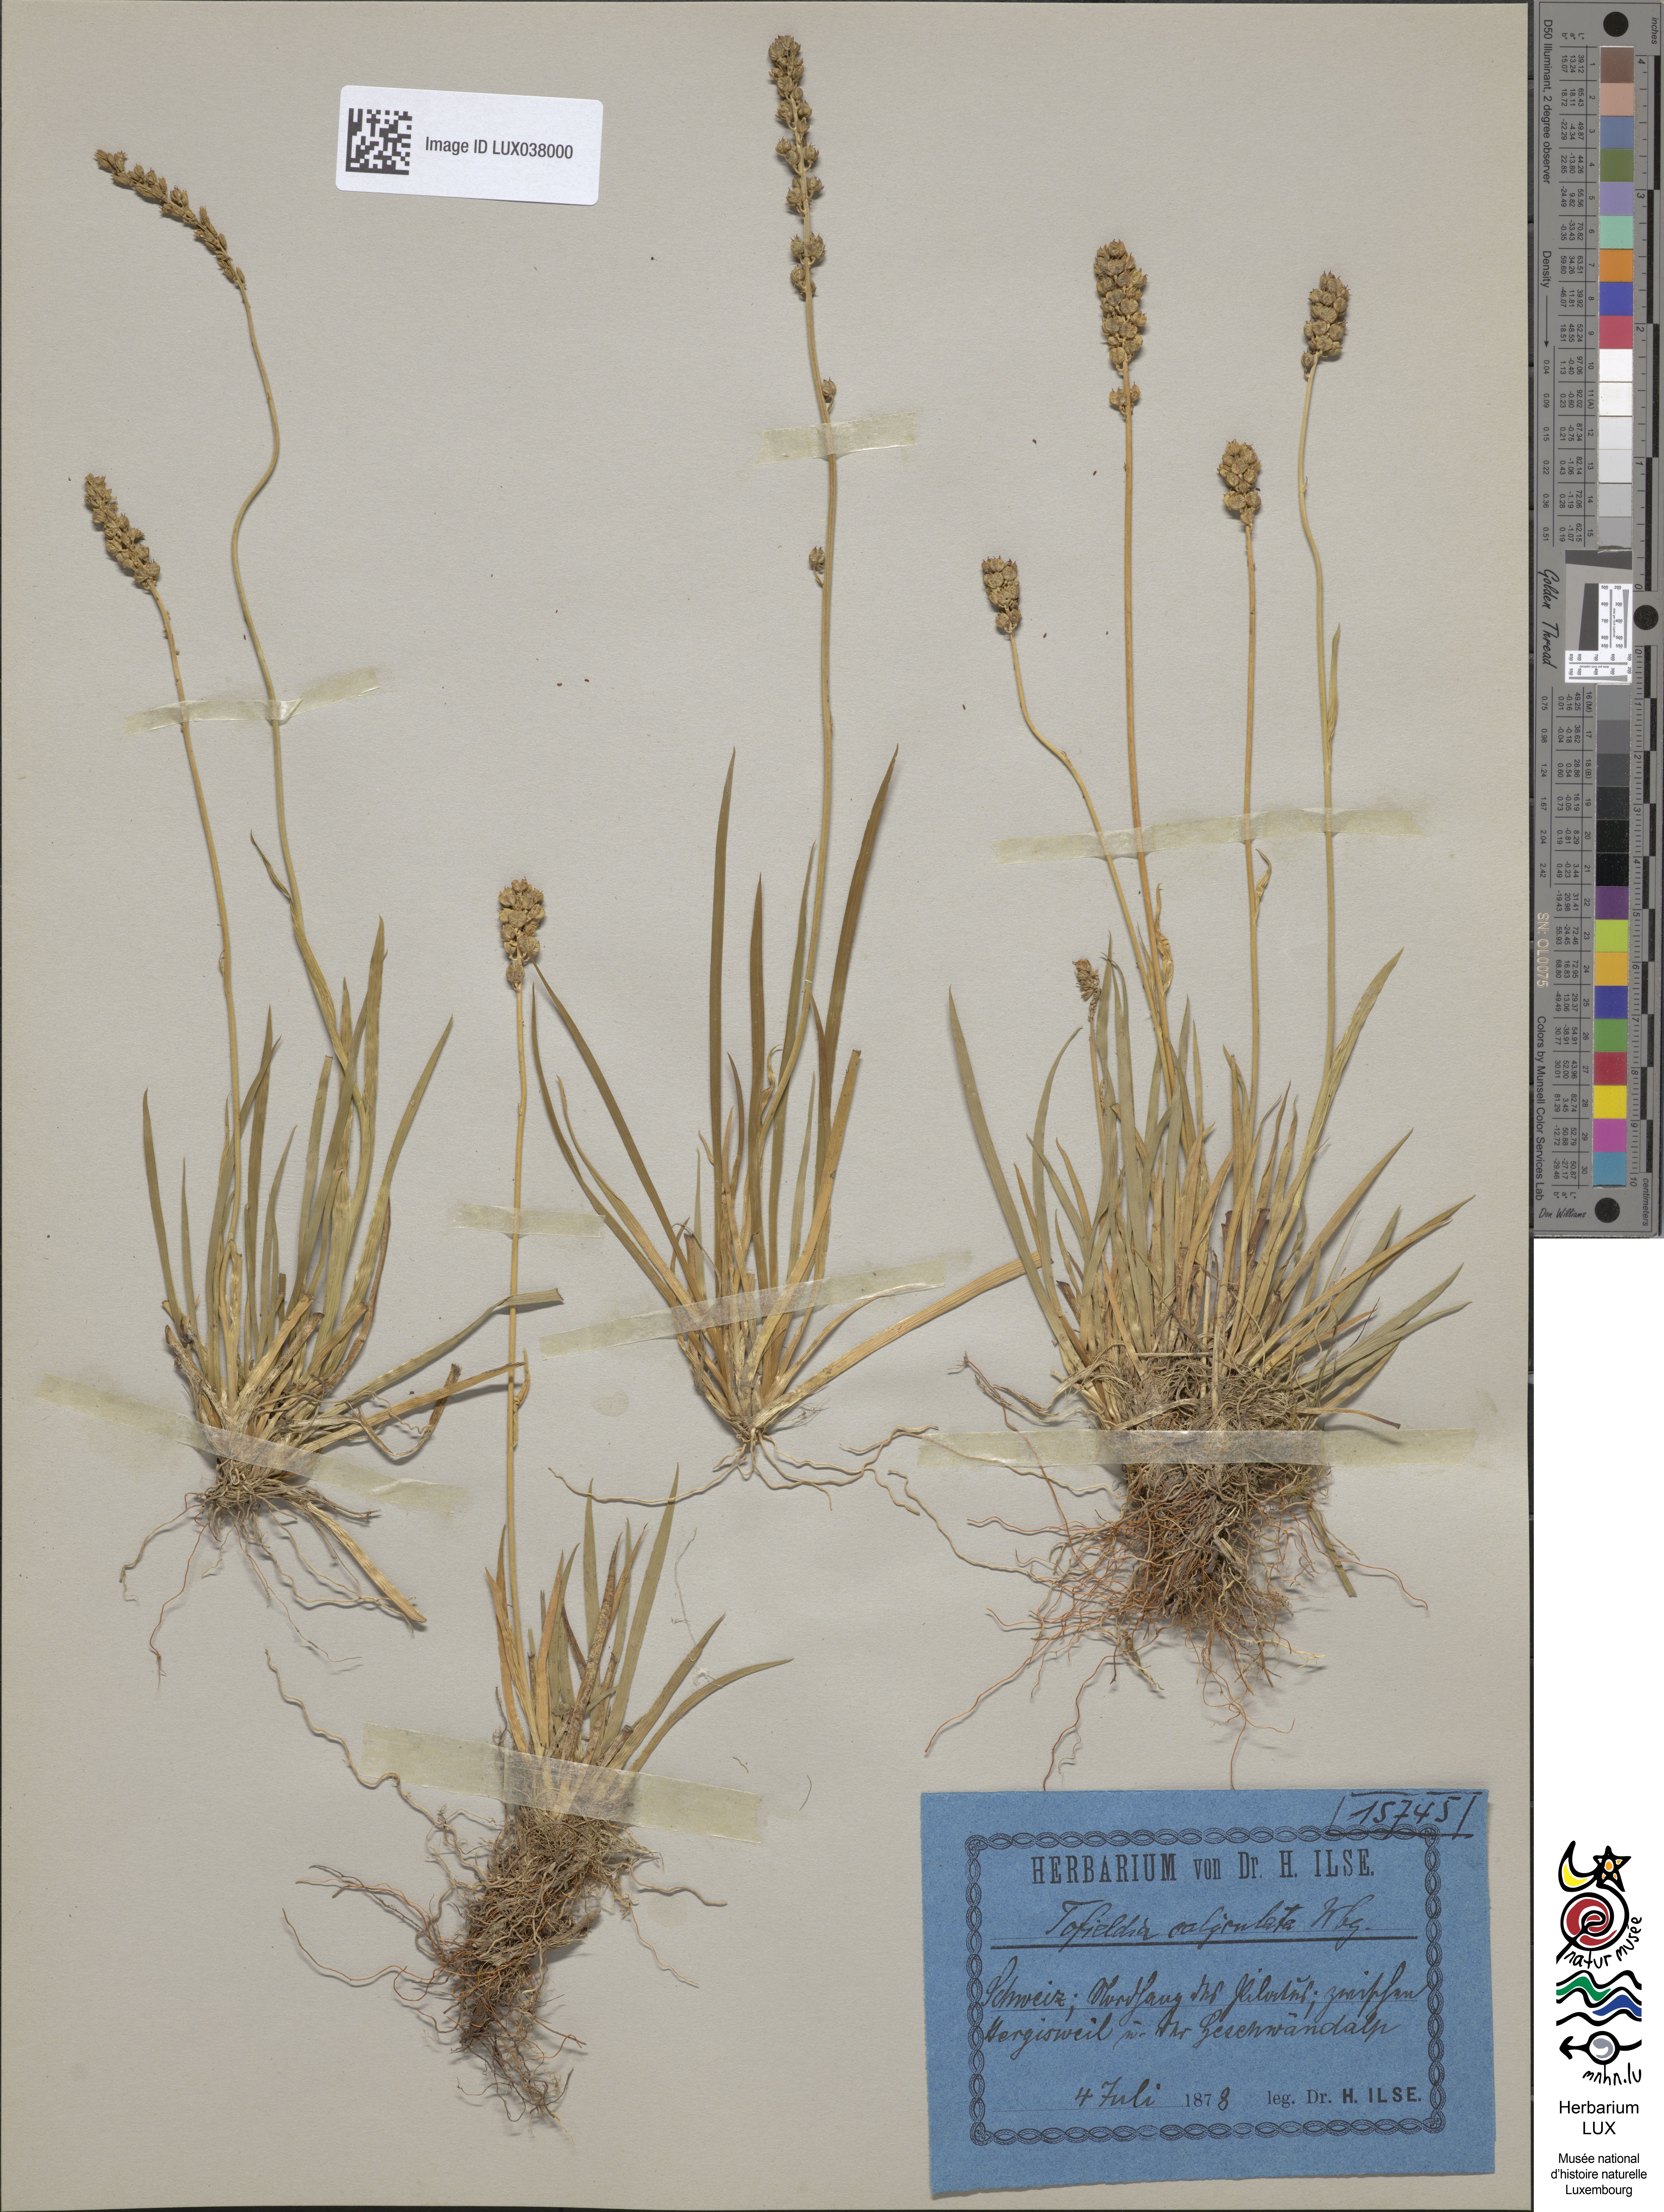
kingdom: Plantae
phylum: Tracheophyta
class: Liliopsida
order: Alismatales
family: Tofieldiaceae
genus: Tofieldia
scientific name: Tofieldia calyculata
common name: German-asphodel
